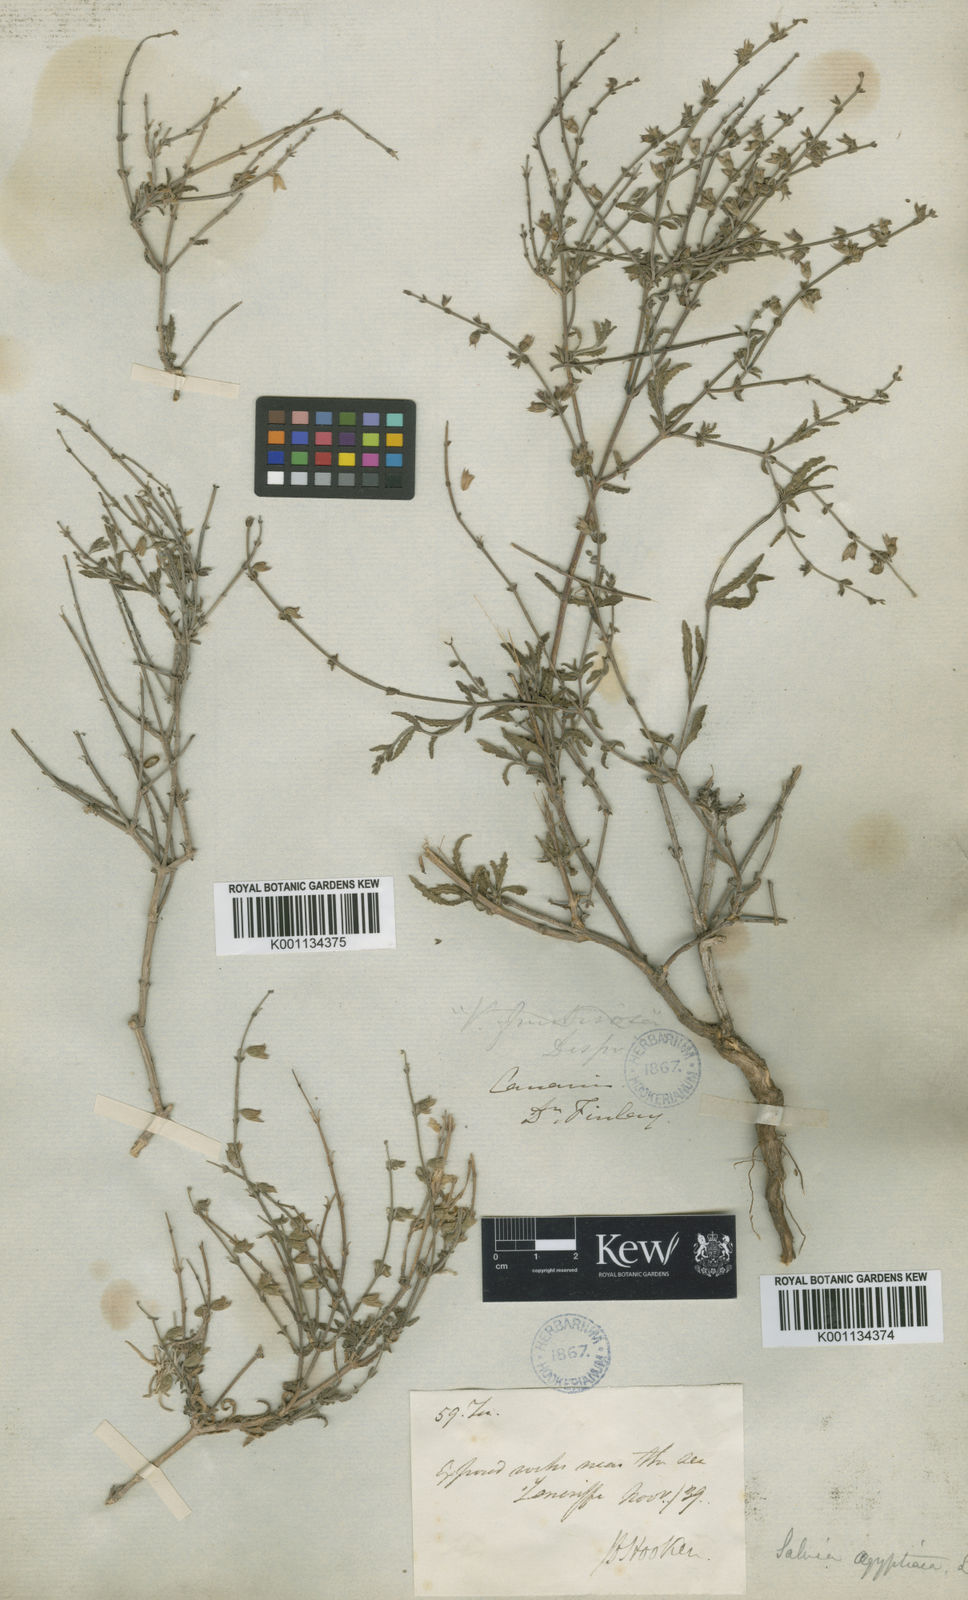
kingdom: Plantae
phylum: Tracheophyta
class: Magnoliopsida
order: Lamiales
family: Lamiaceae
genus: Salvia
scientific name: Salvia aegyptiaca
